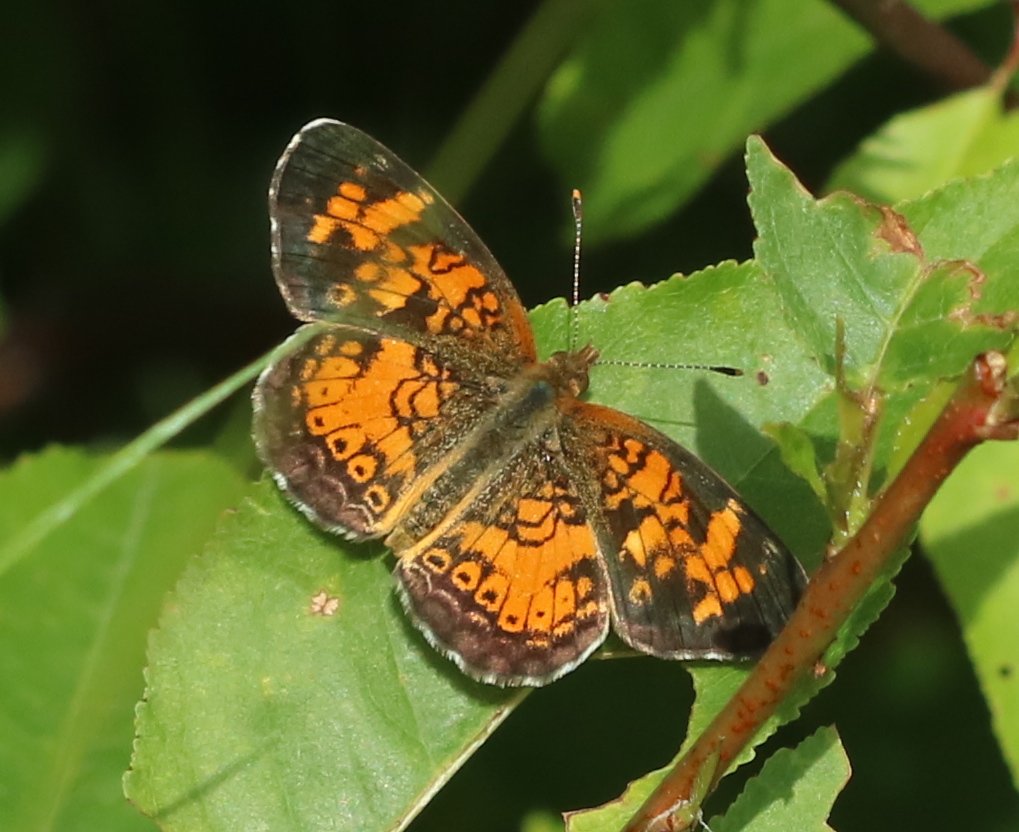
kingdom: Animalia
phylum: Arthropoda
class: Insecta
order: Lepidoptera
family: Nymphalidae
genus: Phyciodes
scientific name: Phyciodes tharos
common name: Northern Crescent
